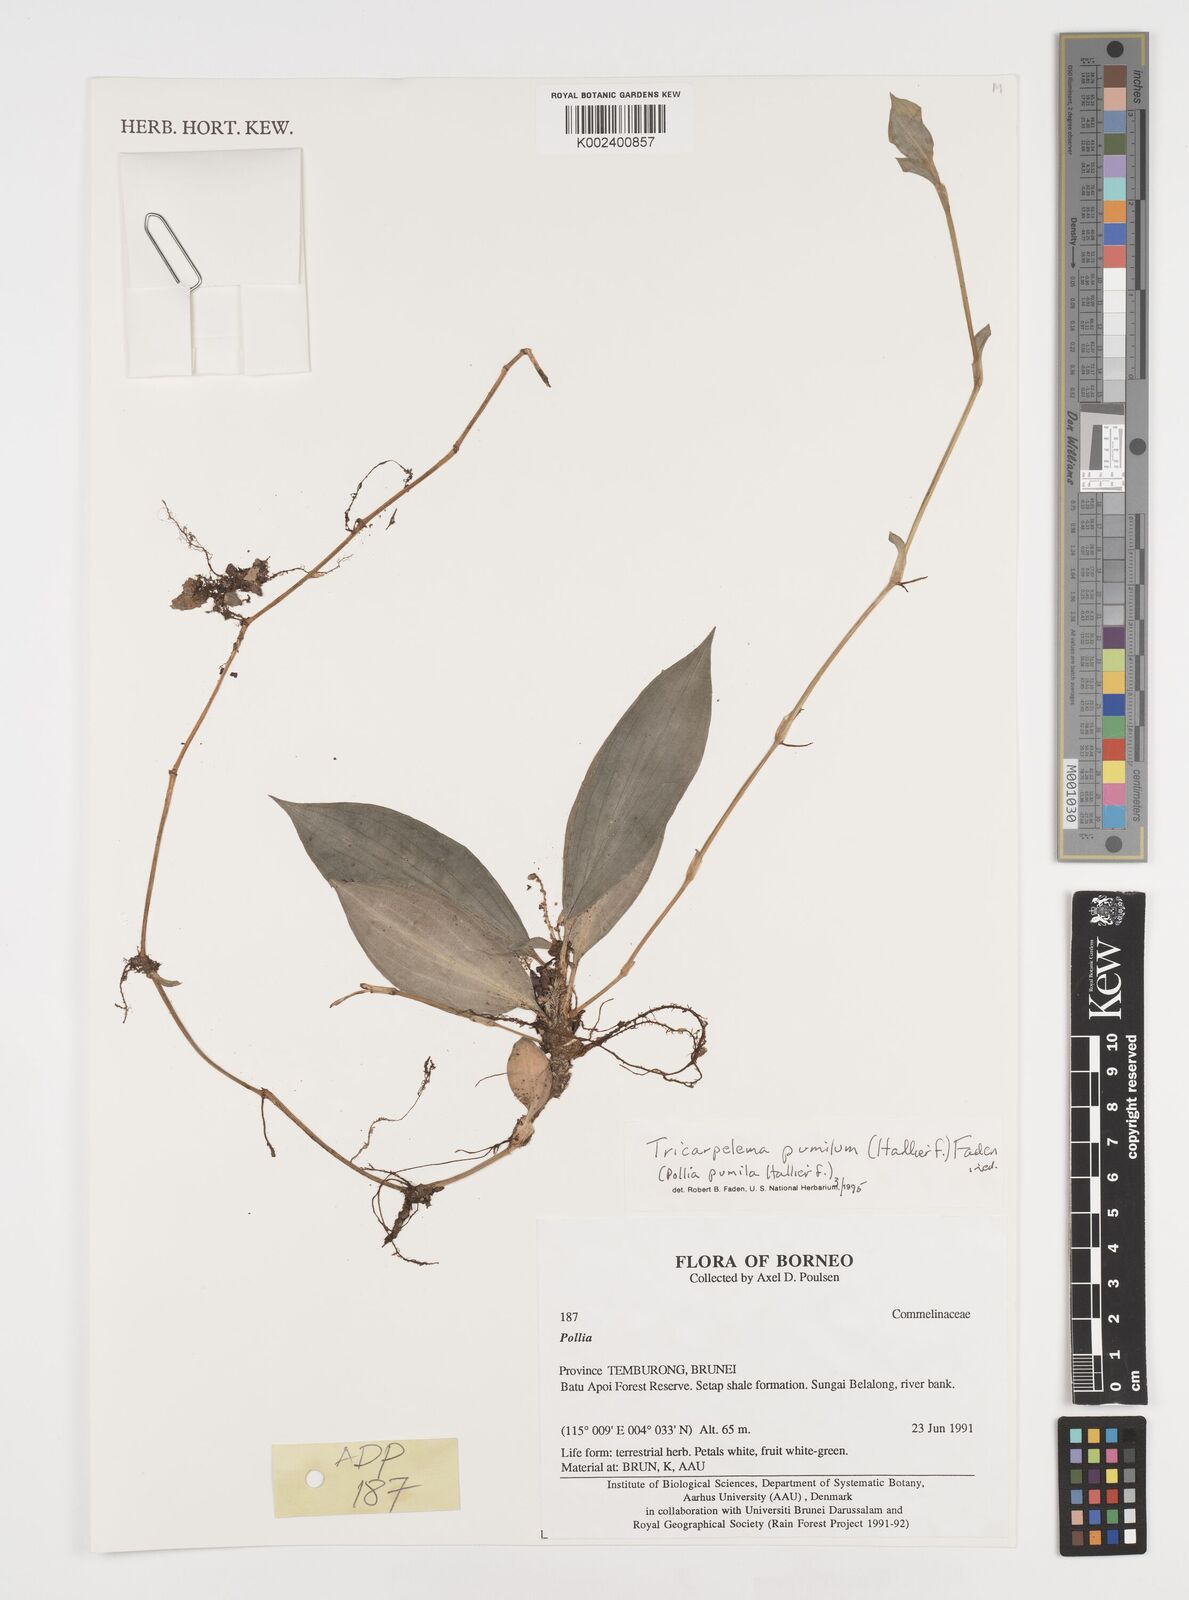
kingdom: Plantae
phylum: Tracheophyta
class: Liliopsida
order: Commelinales
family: Commelinaceae
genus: Tricarpelema
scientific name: Tricarpelema pumilum
